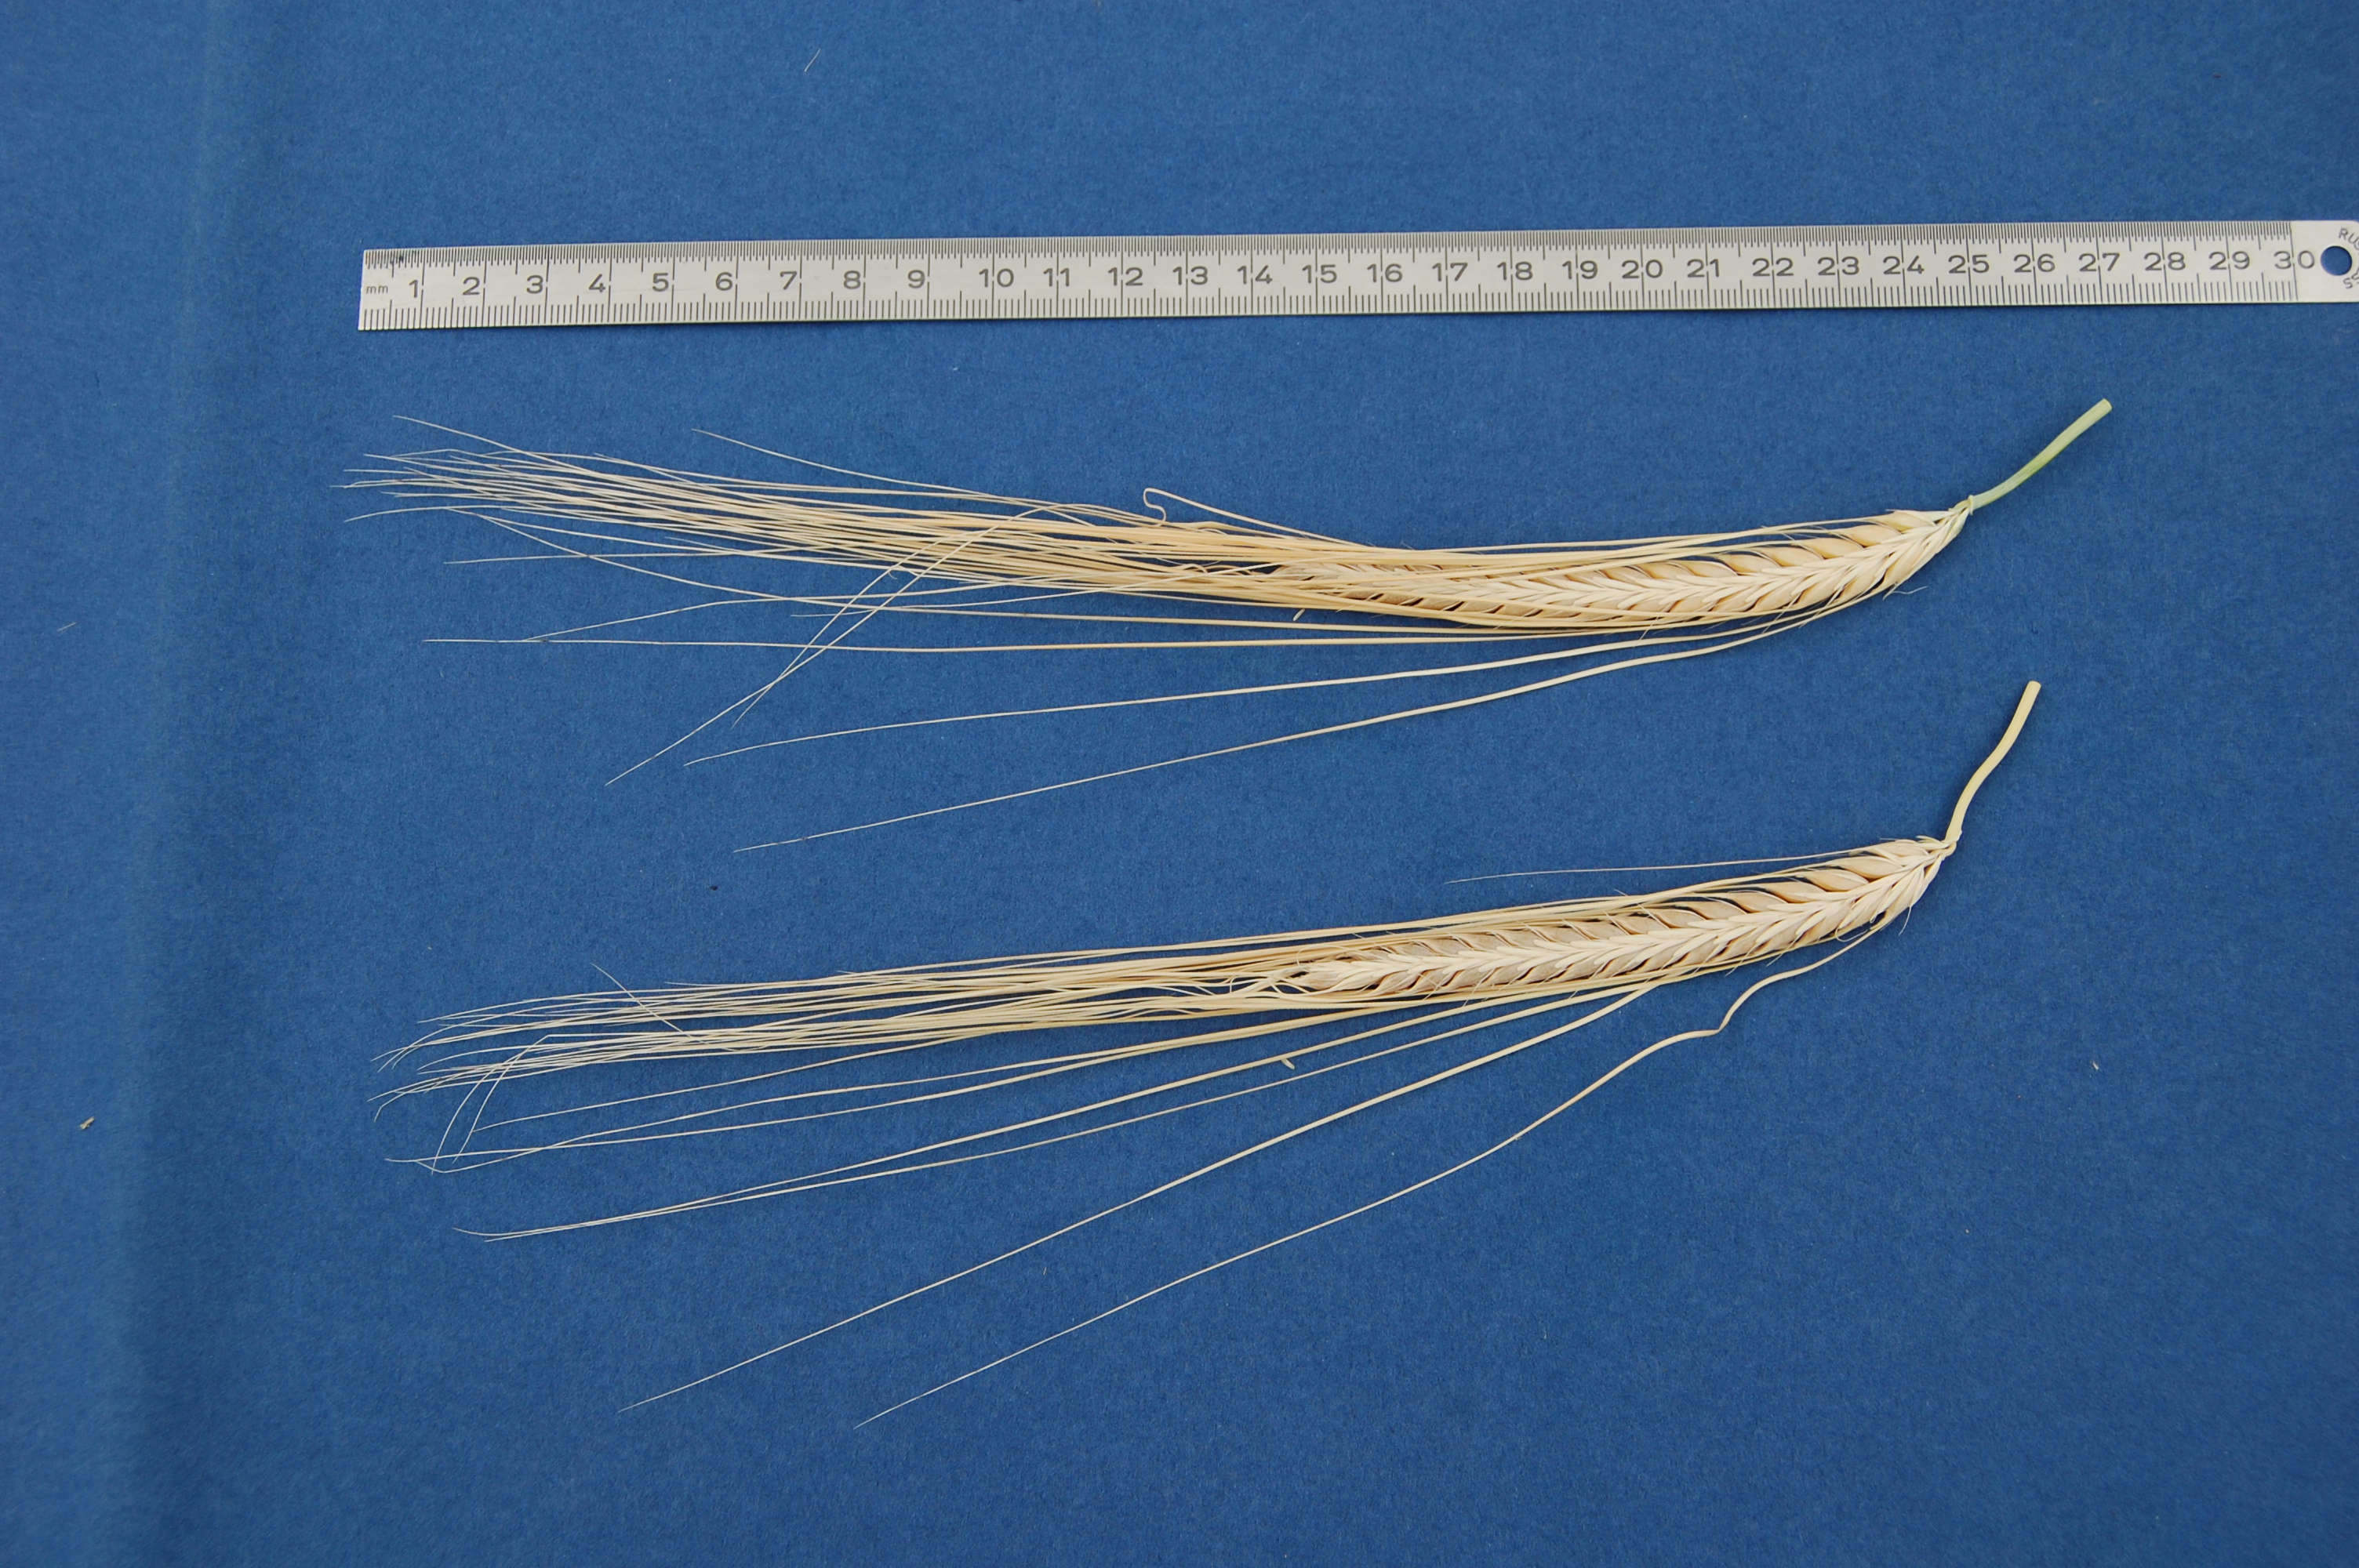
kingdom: Plantae
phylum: Tracheophyta
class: Liliopsida
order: Poales
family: Poaceae
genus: Hordeum
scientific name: Hordeum vulgare
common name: Common barley
